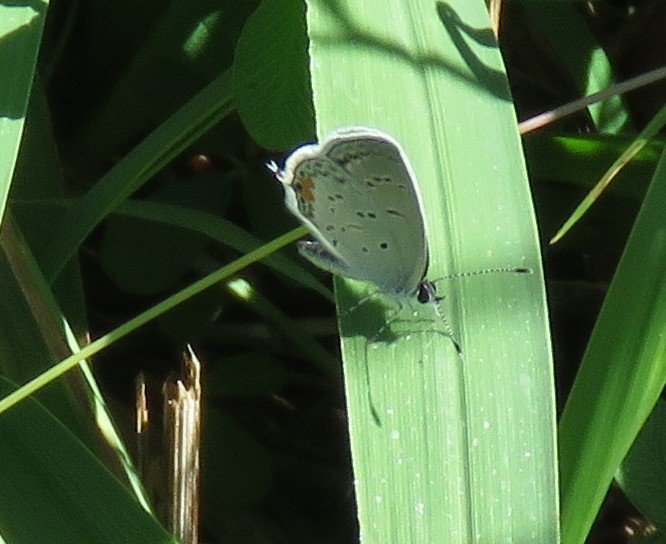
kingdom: Animalia
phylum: Arthropoda
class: Insecta
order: Lepidoptera
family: Lycaenidae
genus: Elkalyce
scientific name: Elkalyce comyntas
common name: Eastern Tailed-Blue
